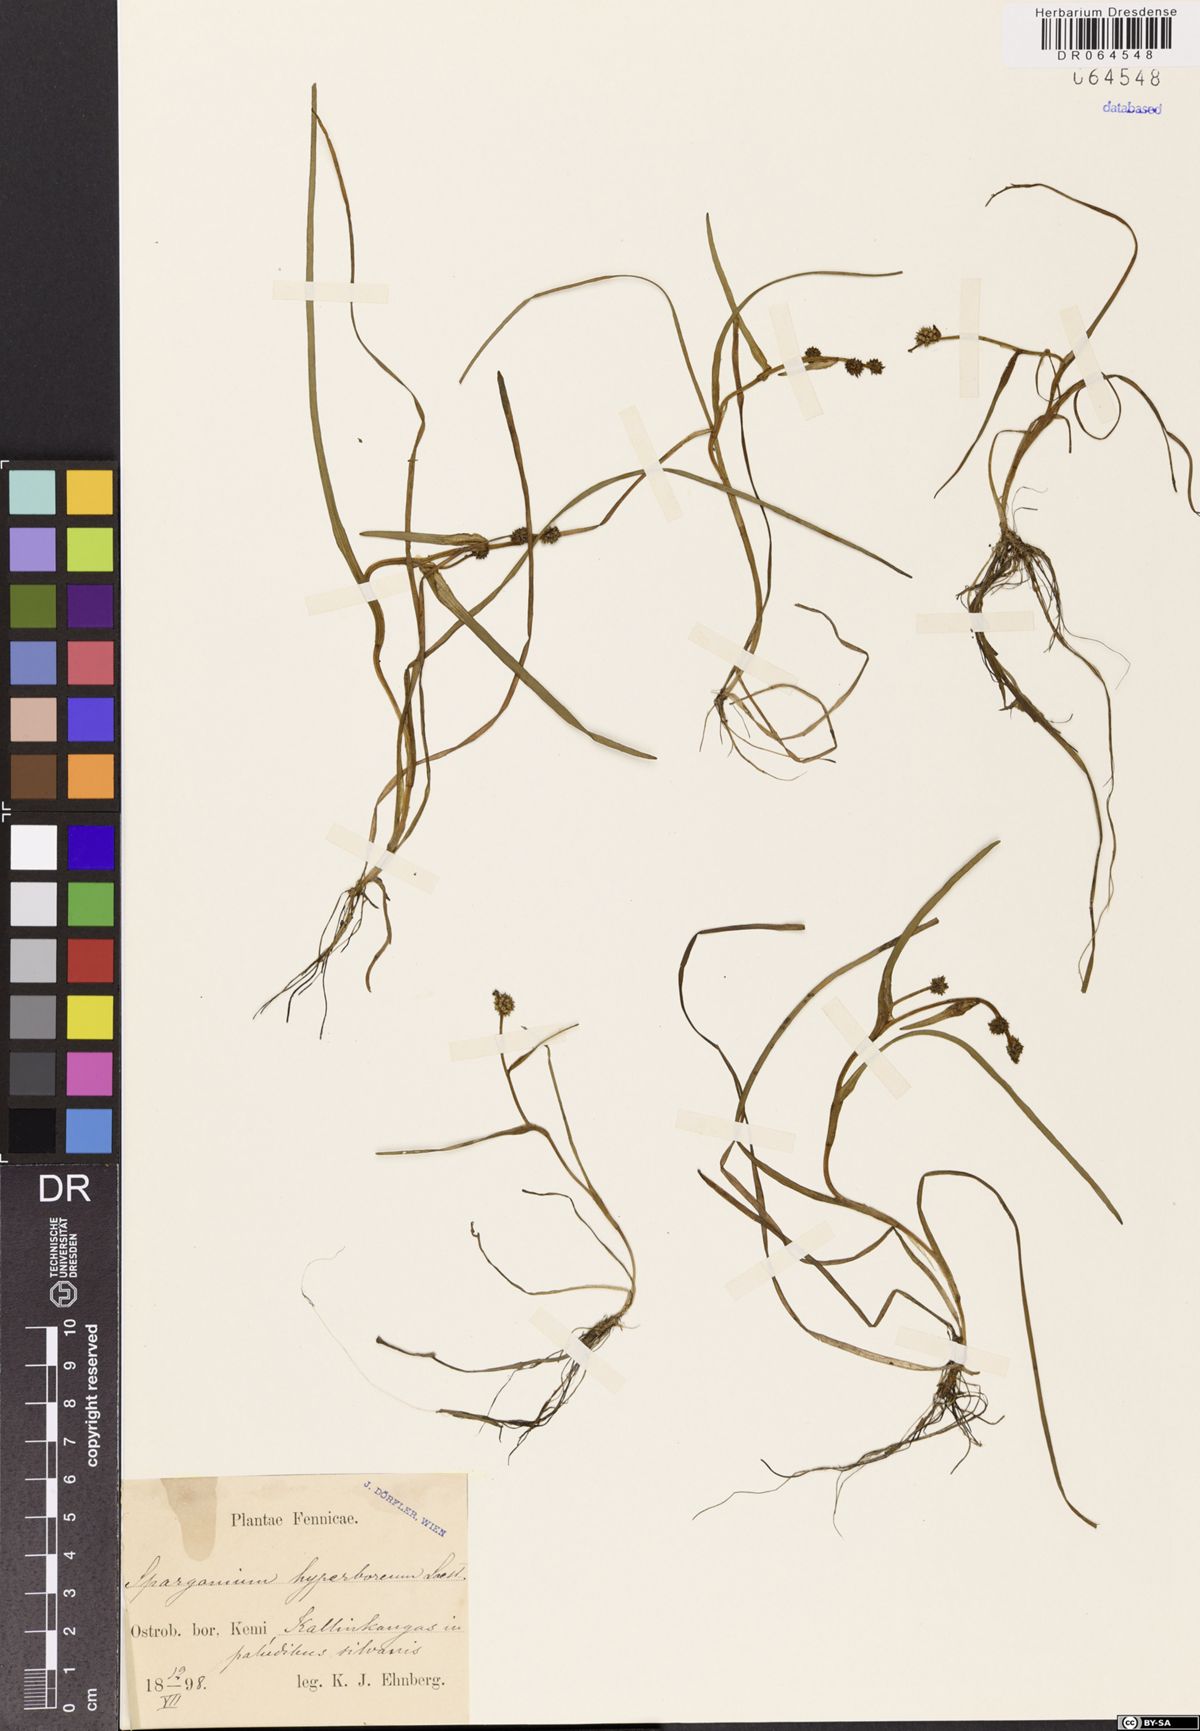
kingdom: Plantae
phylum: Tracheophyta
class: Liliopsida
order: Poales
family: Typhaceae
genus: Sparganium
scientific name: Sparganium hyperboreum
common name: Arctic burreed
